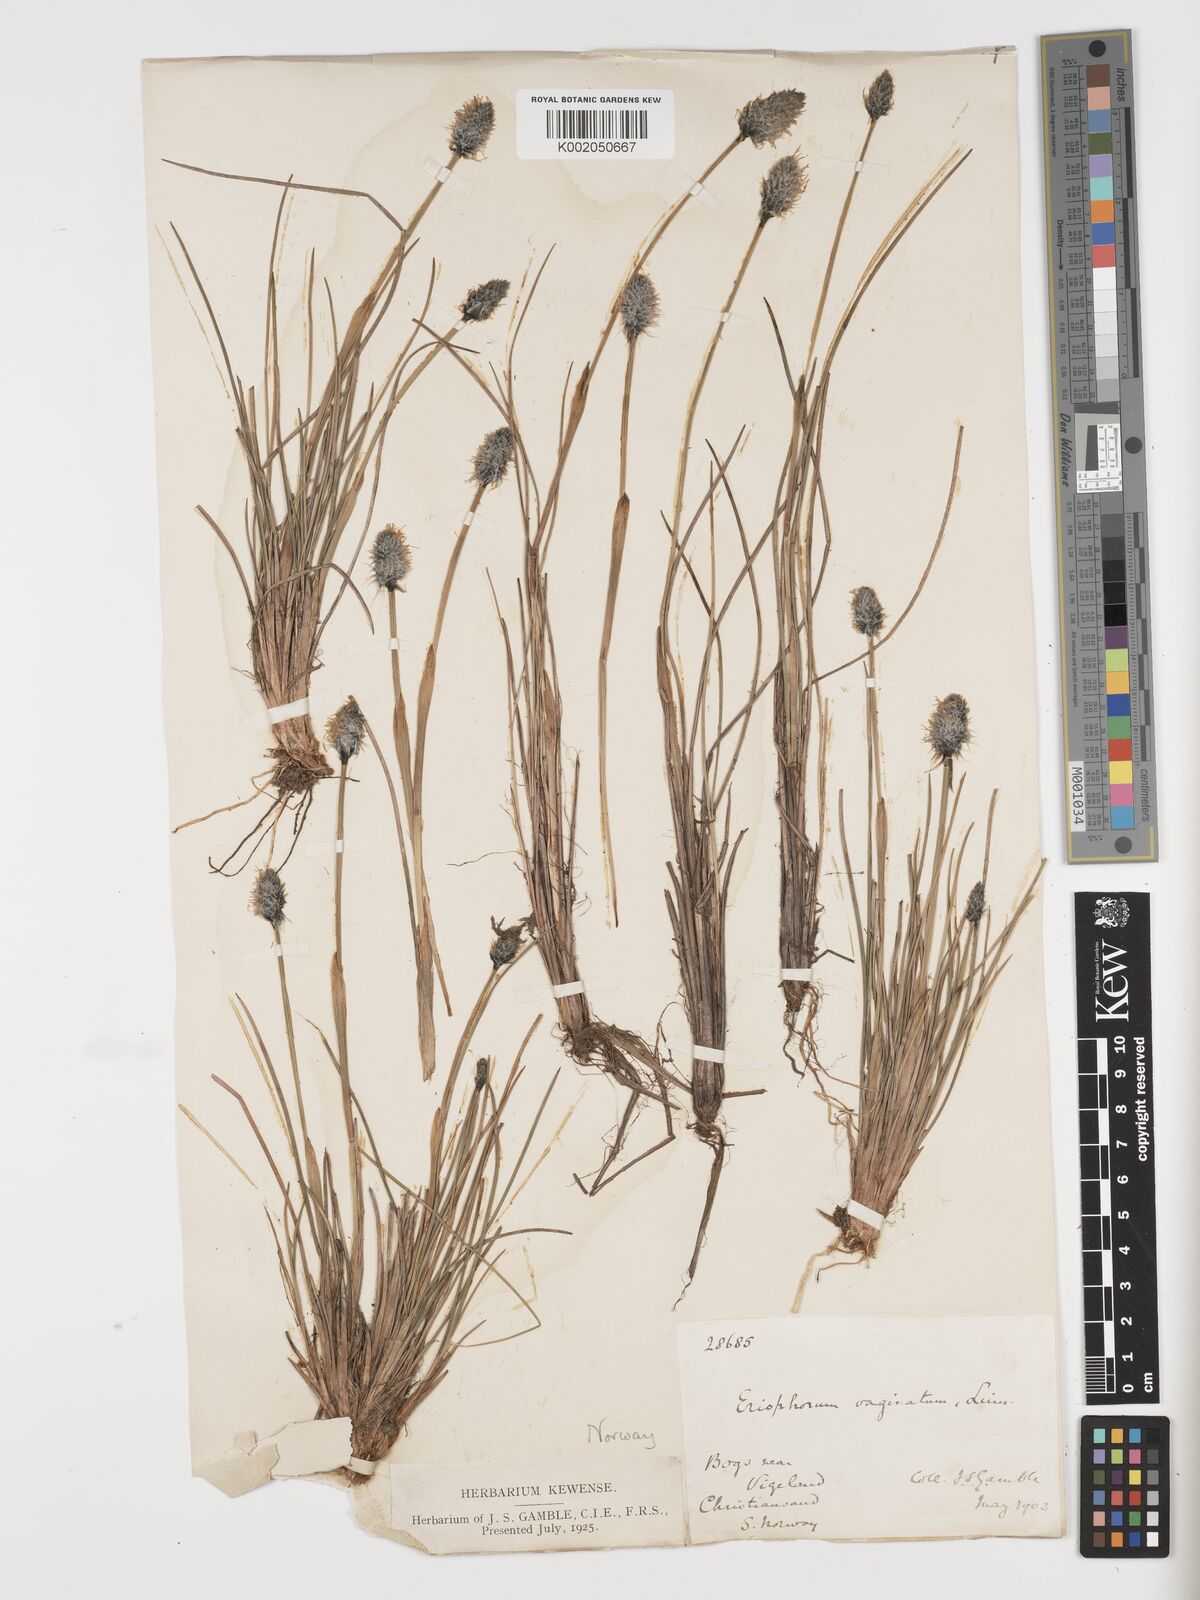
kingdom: Plantae
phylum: Tracheophyta
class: Liliopsida
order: Poales
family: Cyperaceae
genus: Eriophorum
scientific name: Eriophorum vaginatum
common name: Hare's-tail cottongrass
